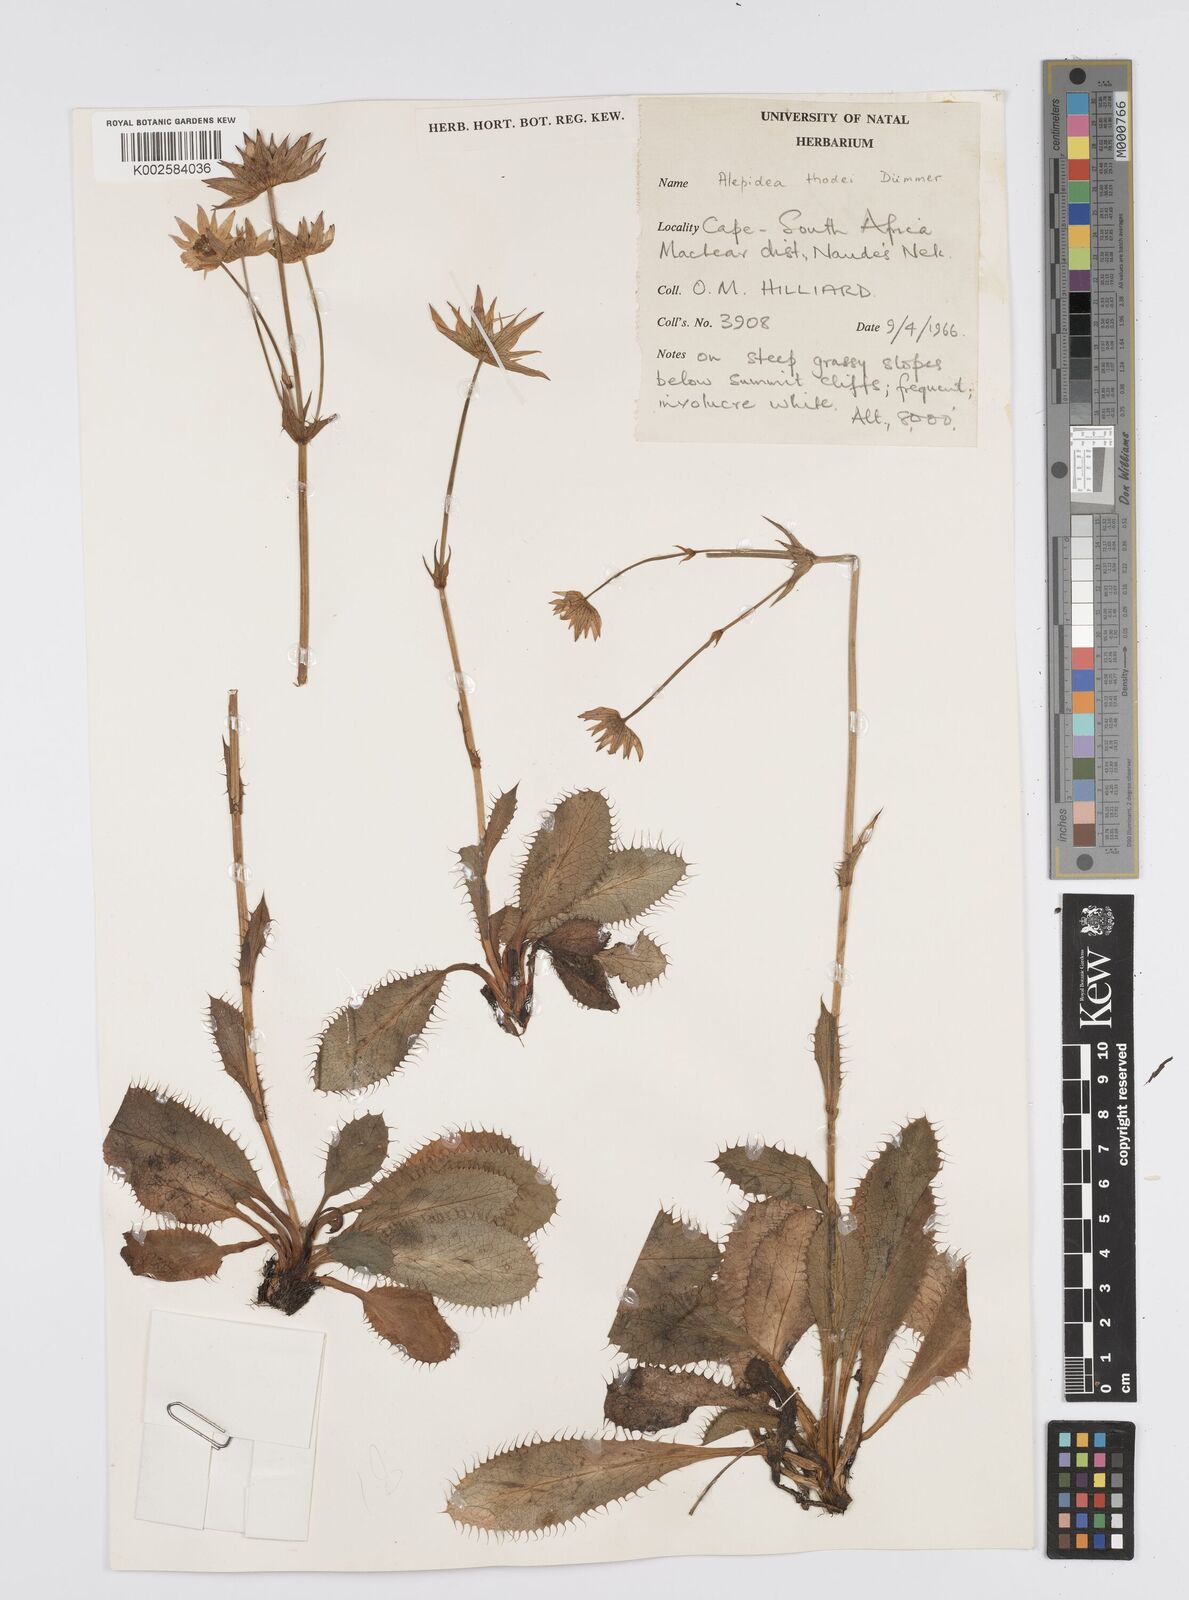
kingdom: Plantae
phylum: Tracheophyta
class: Magnoliopsida
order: Apiales
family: Apiaceae
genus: Alepidea
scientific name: Alepidea thodei
